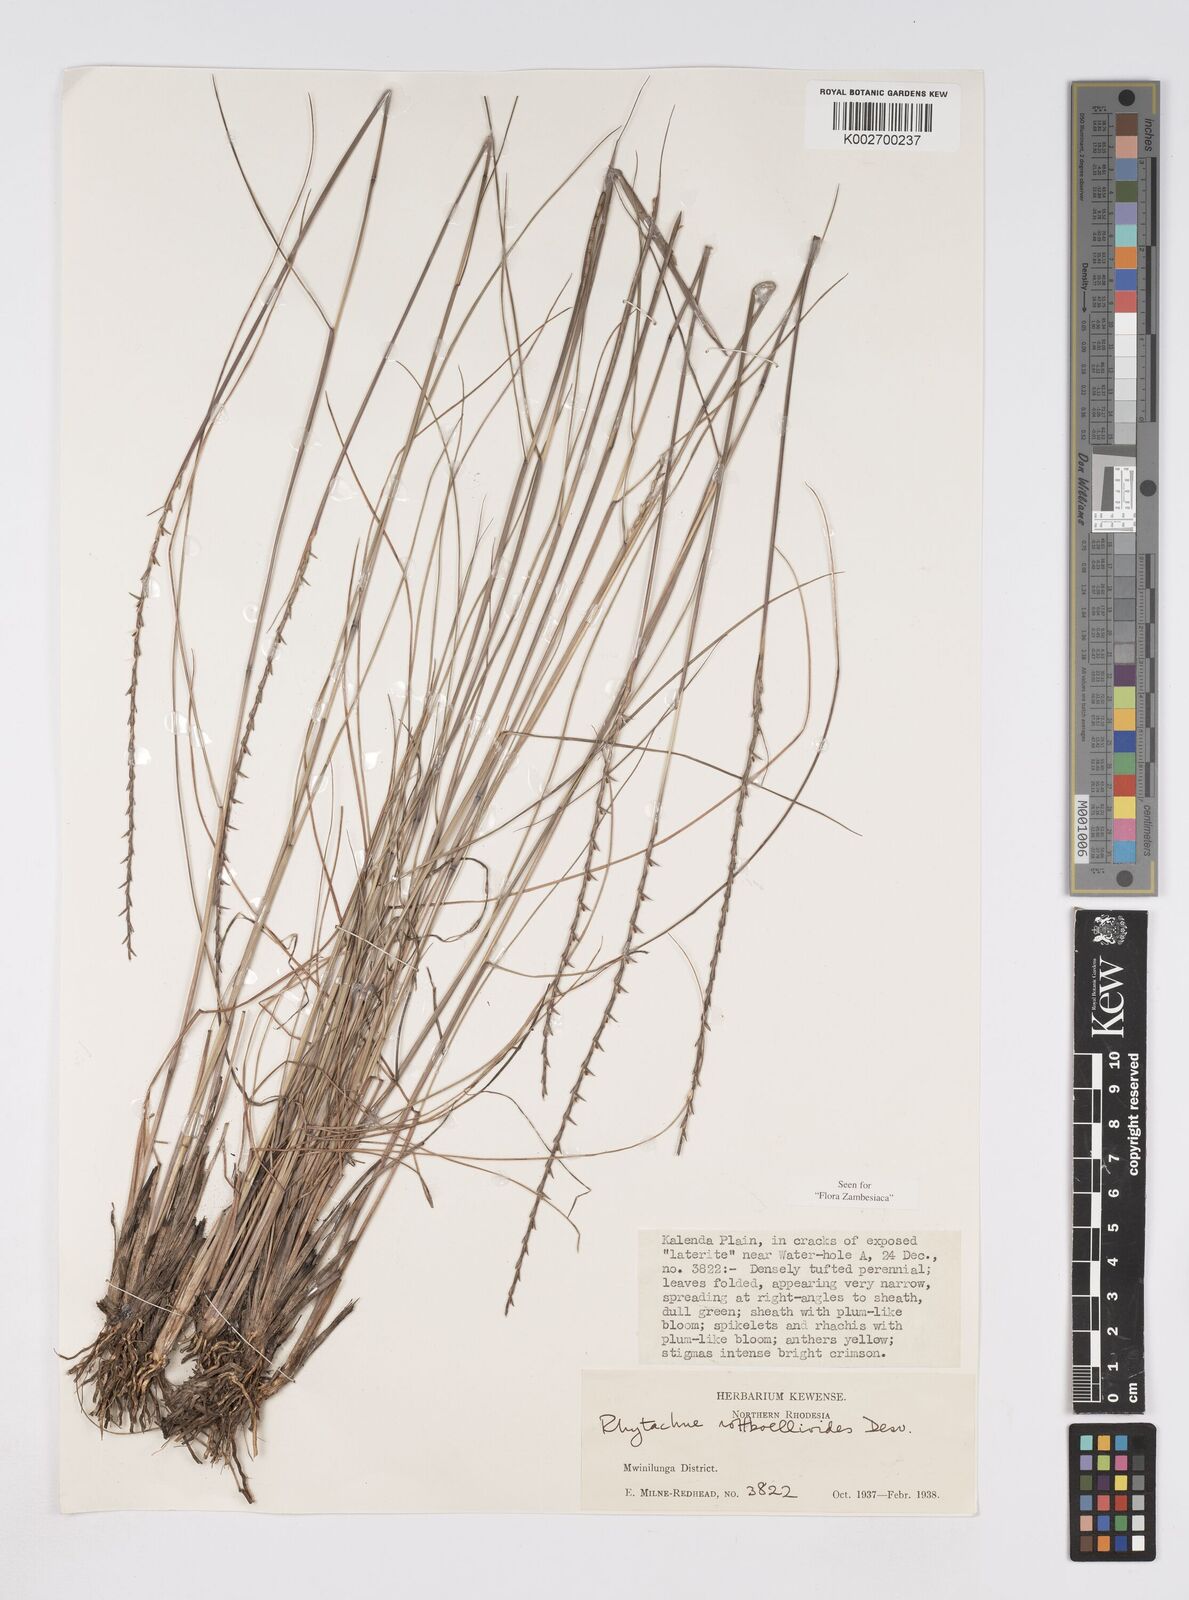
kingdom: Plantae
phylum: Tracheophyta
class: Liliopsida
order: Poales
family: Poaceae
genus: Rhytachne
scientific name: Rhytachne rottboellioides
